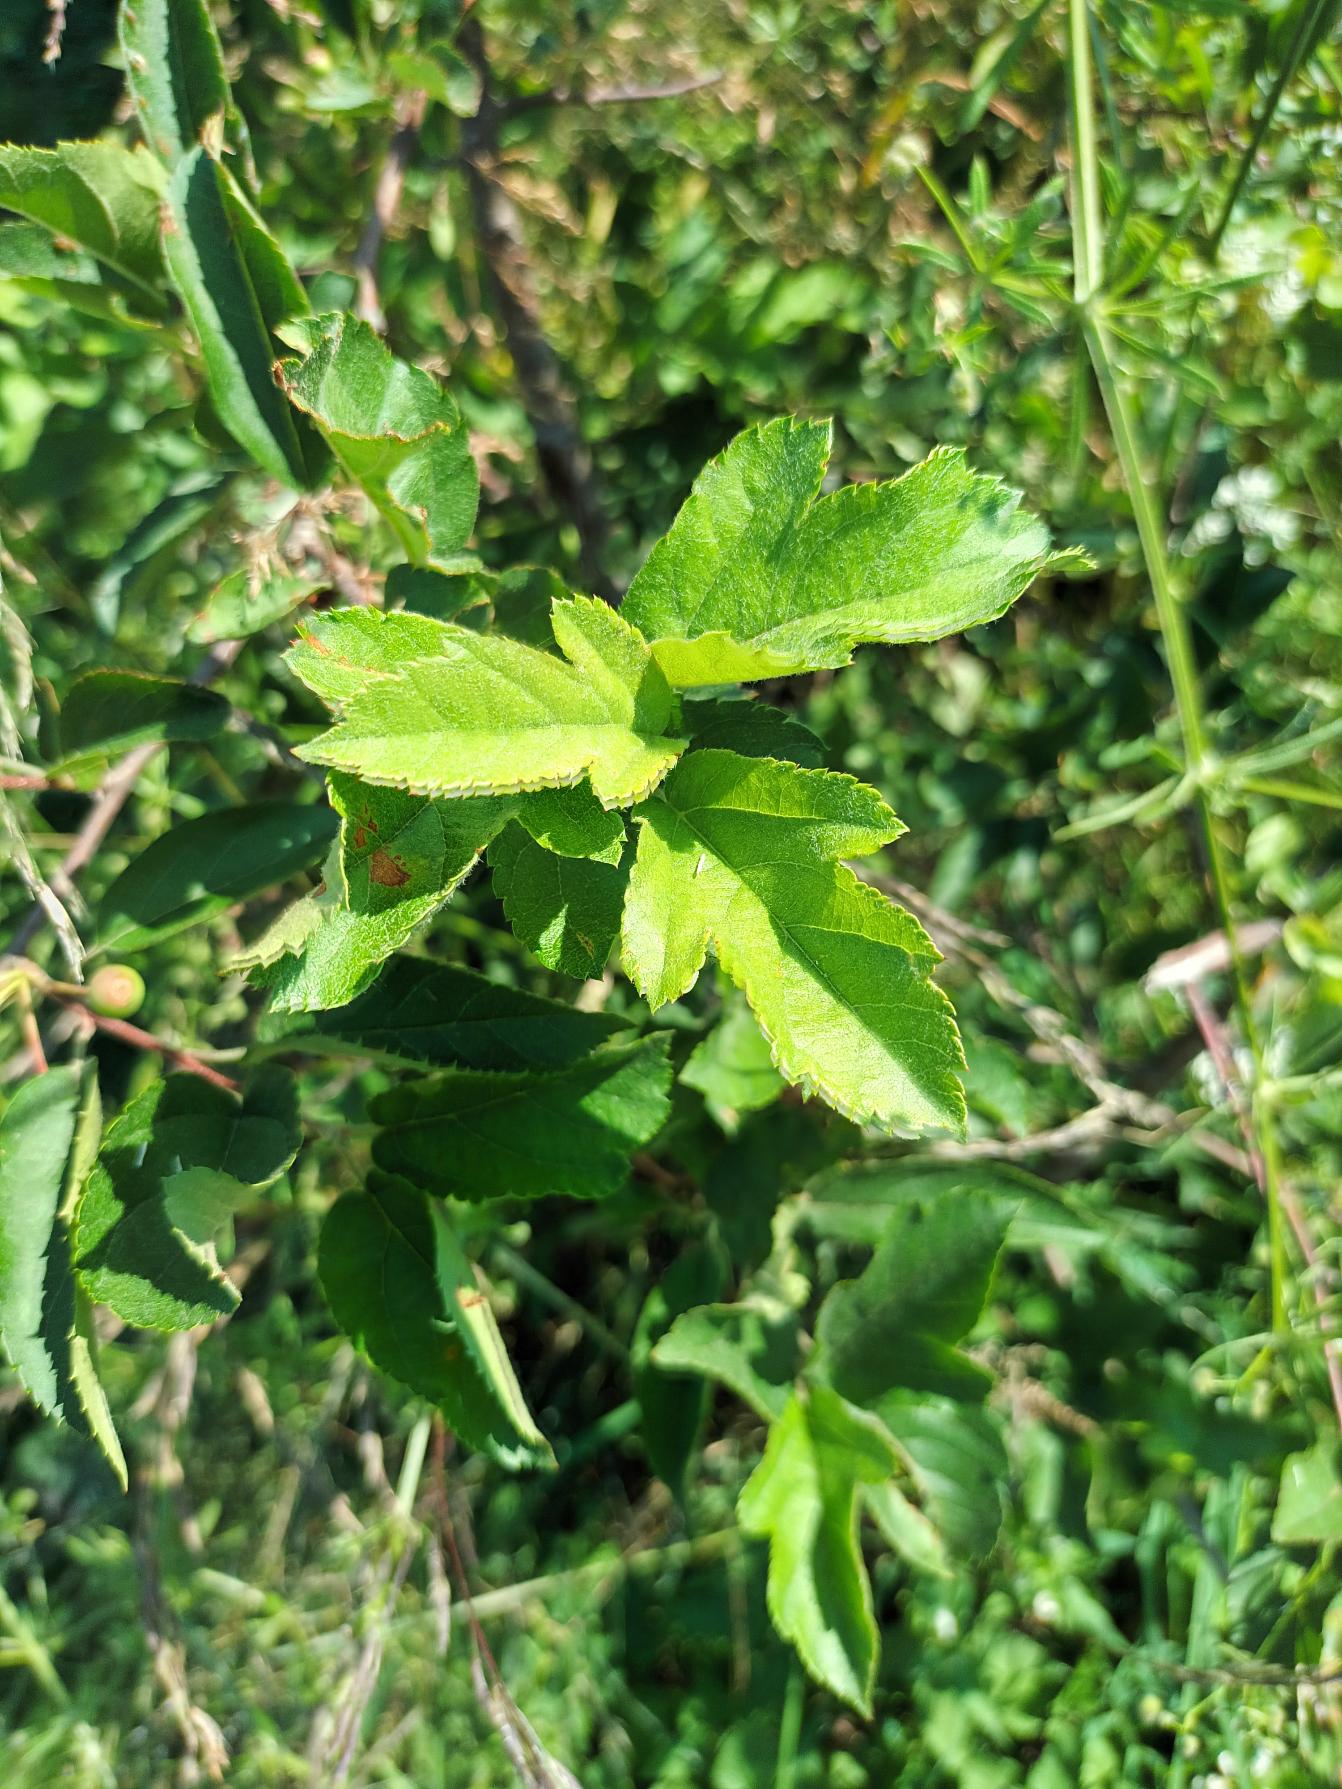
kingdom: Plantae
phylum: Tracheophyta
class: Magnoliopsida
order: Rosales
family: Rosaceae
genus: Malus
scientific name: Malus toringo
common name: Sargents-æble
